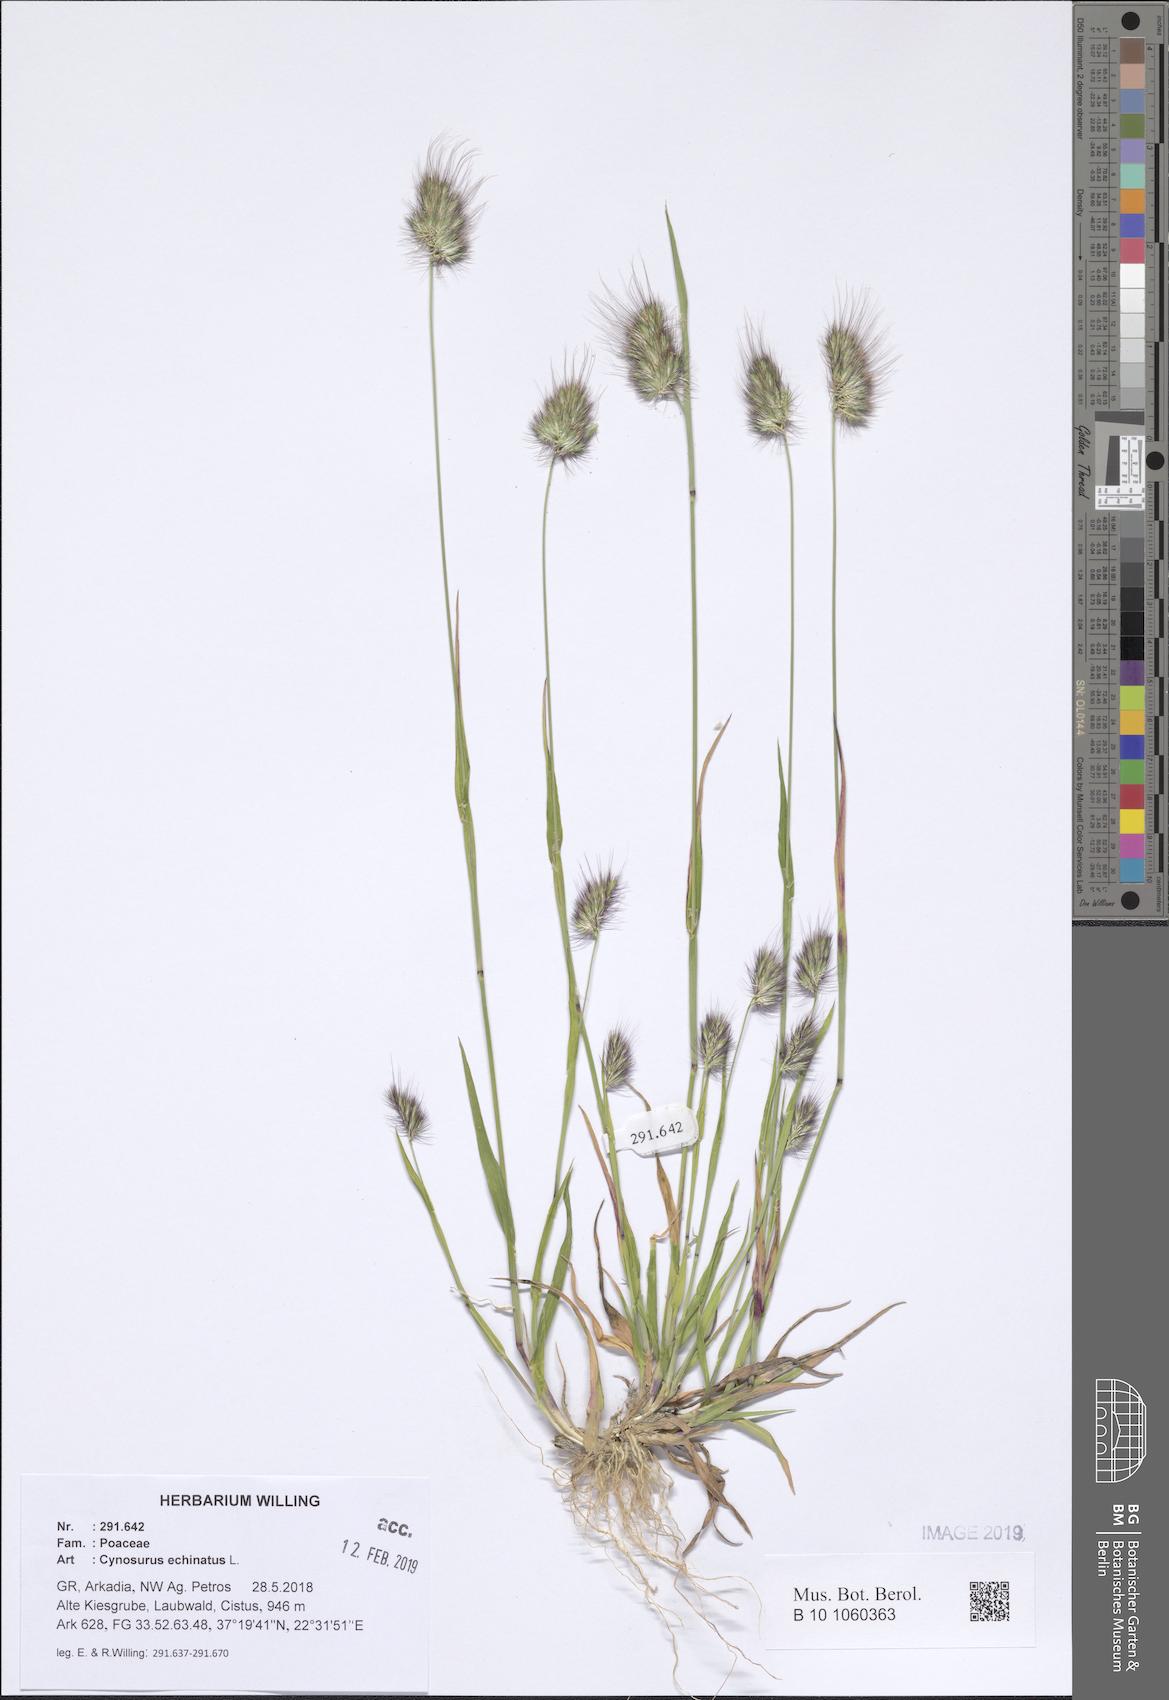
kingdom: Plantae
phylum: Tracheophyta
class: Liliopsida
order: Poales
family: Poaceae
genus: Cynosurus
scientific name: Cynosurus echinatus
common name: Rough dog's-tail
